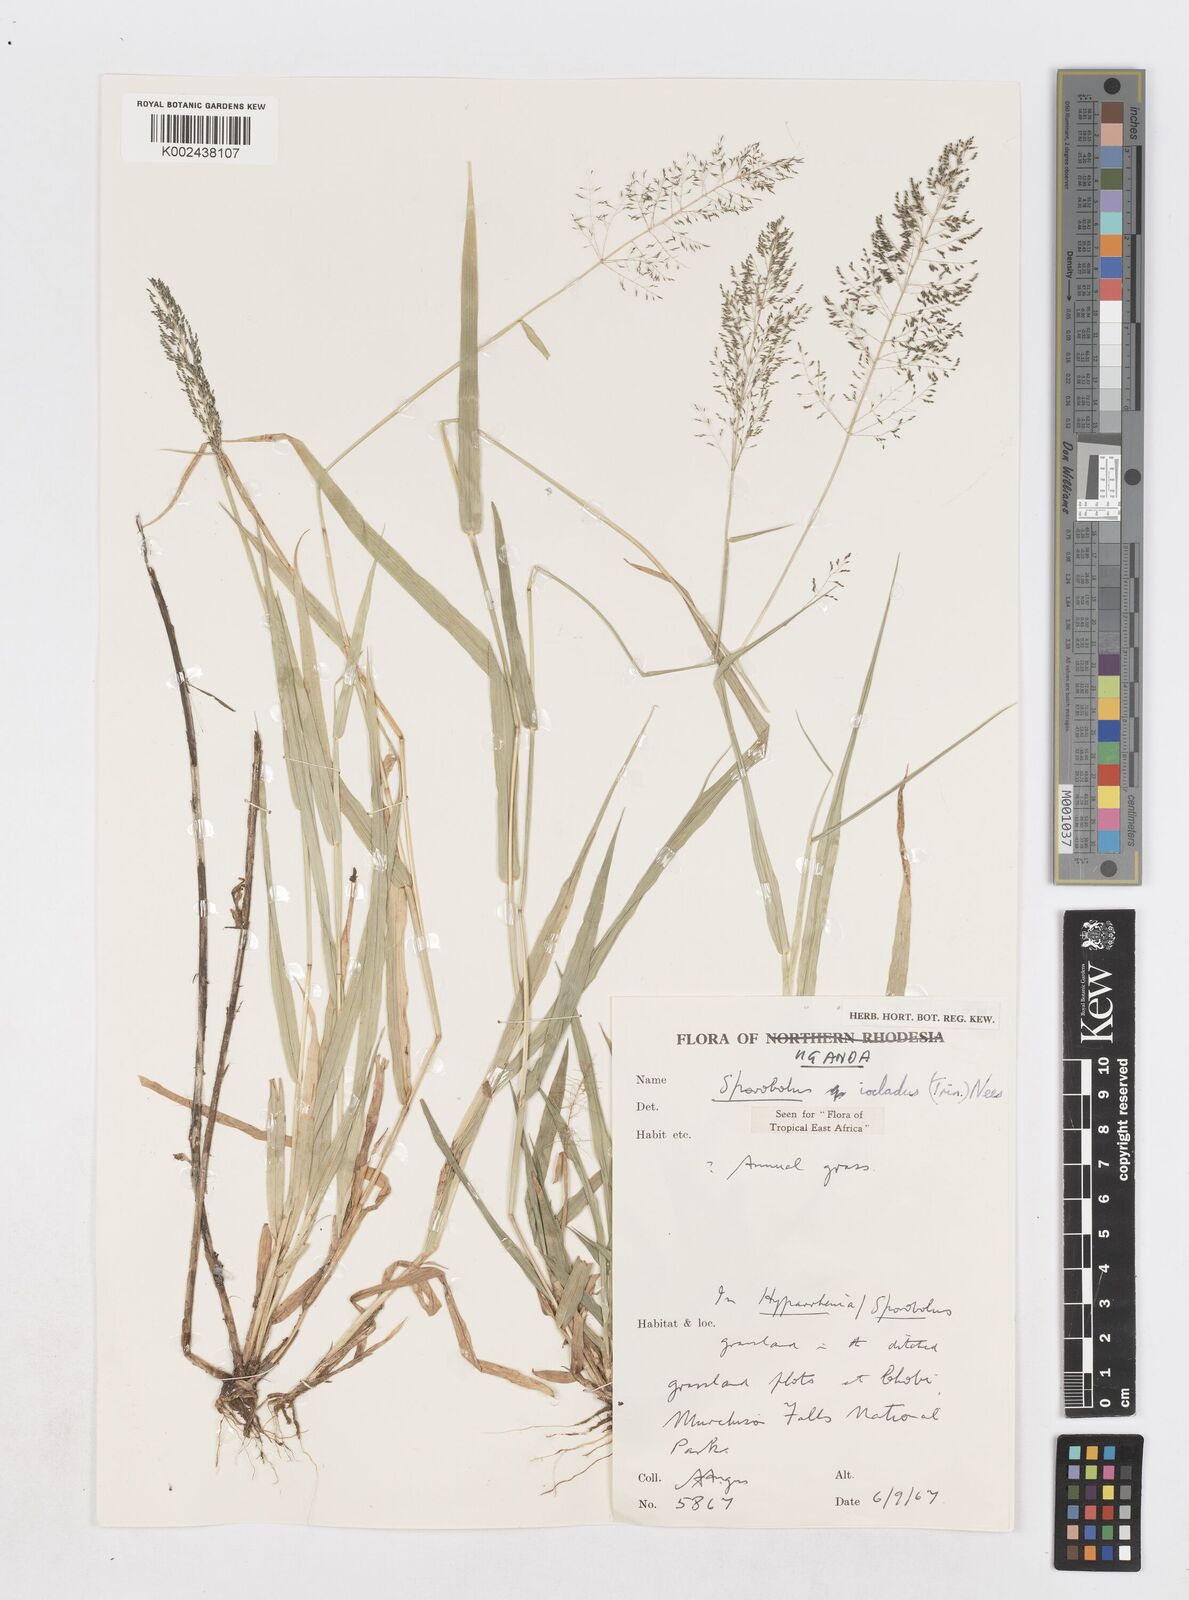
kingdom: Plantae
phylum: Tracheophyta
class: Liliopsida
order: Poales
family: Poaceae
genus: Sporobolus
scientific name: Sporobolus microprotus
